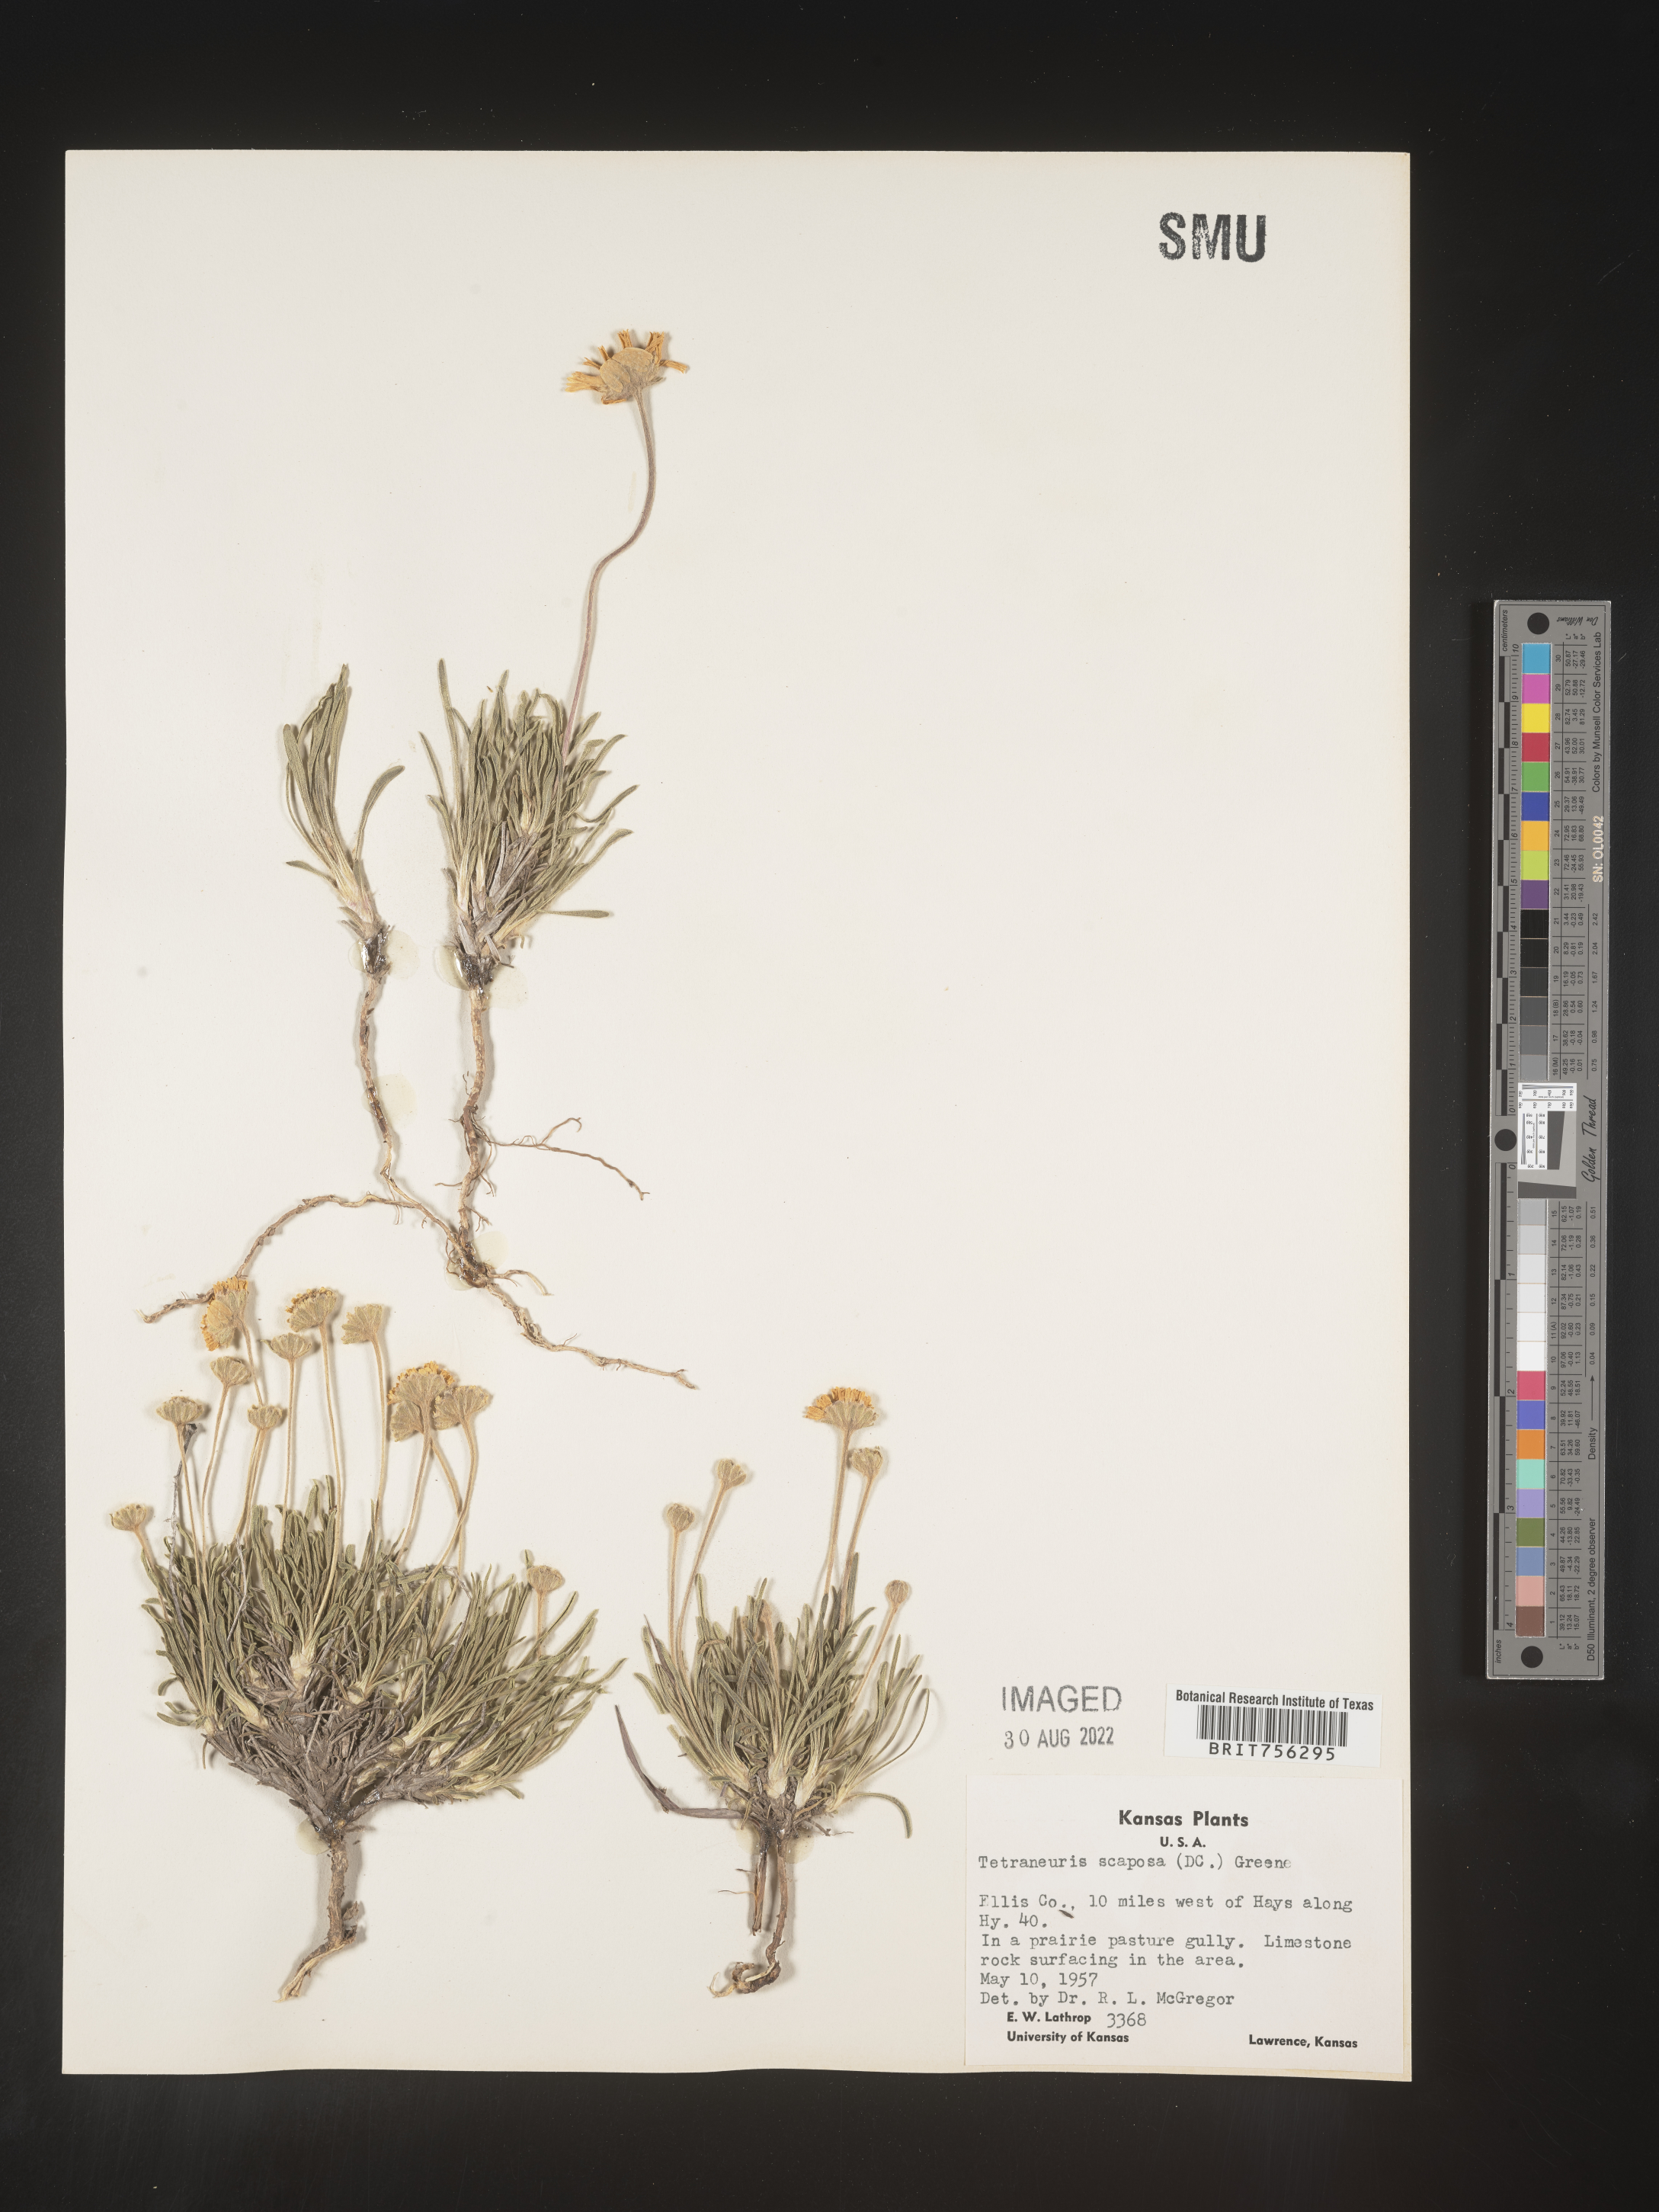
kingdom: Plantae
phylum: Tracheophyta
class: Magnoliopsida
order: Asterales
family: Asteraceae
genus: Tetraneuris
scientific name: Tetraneuris scaposa
